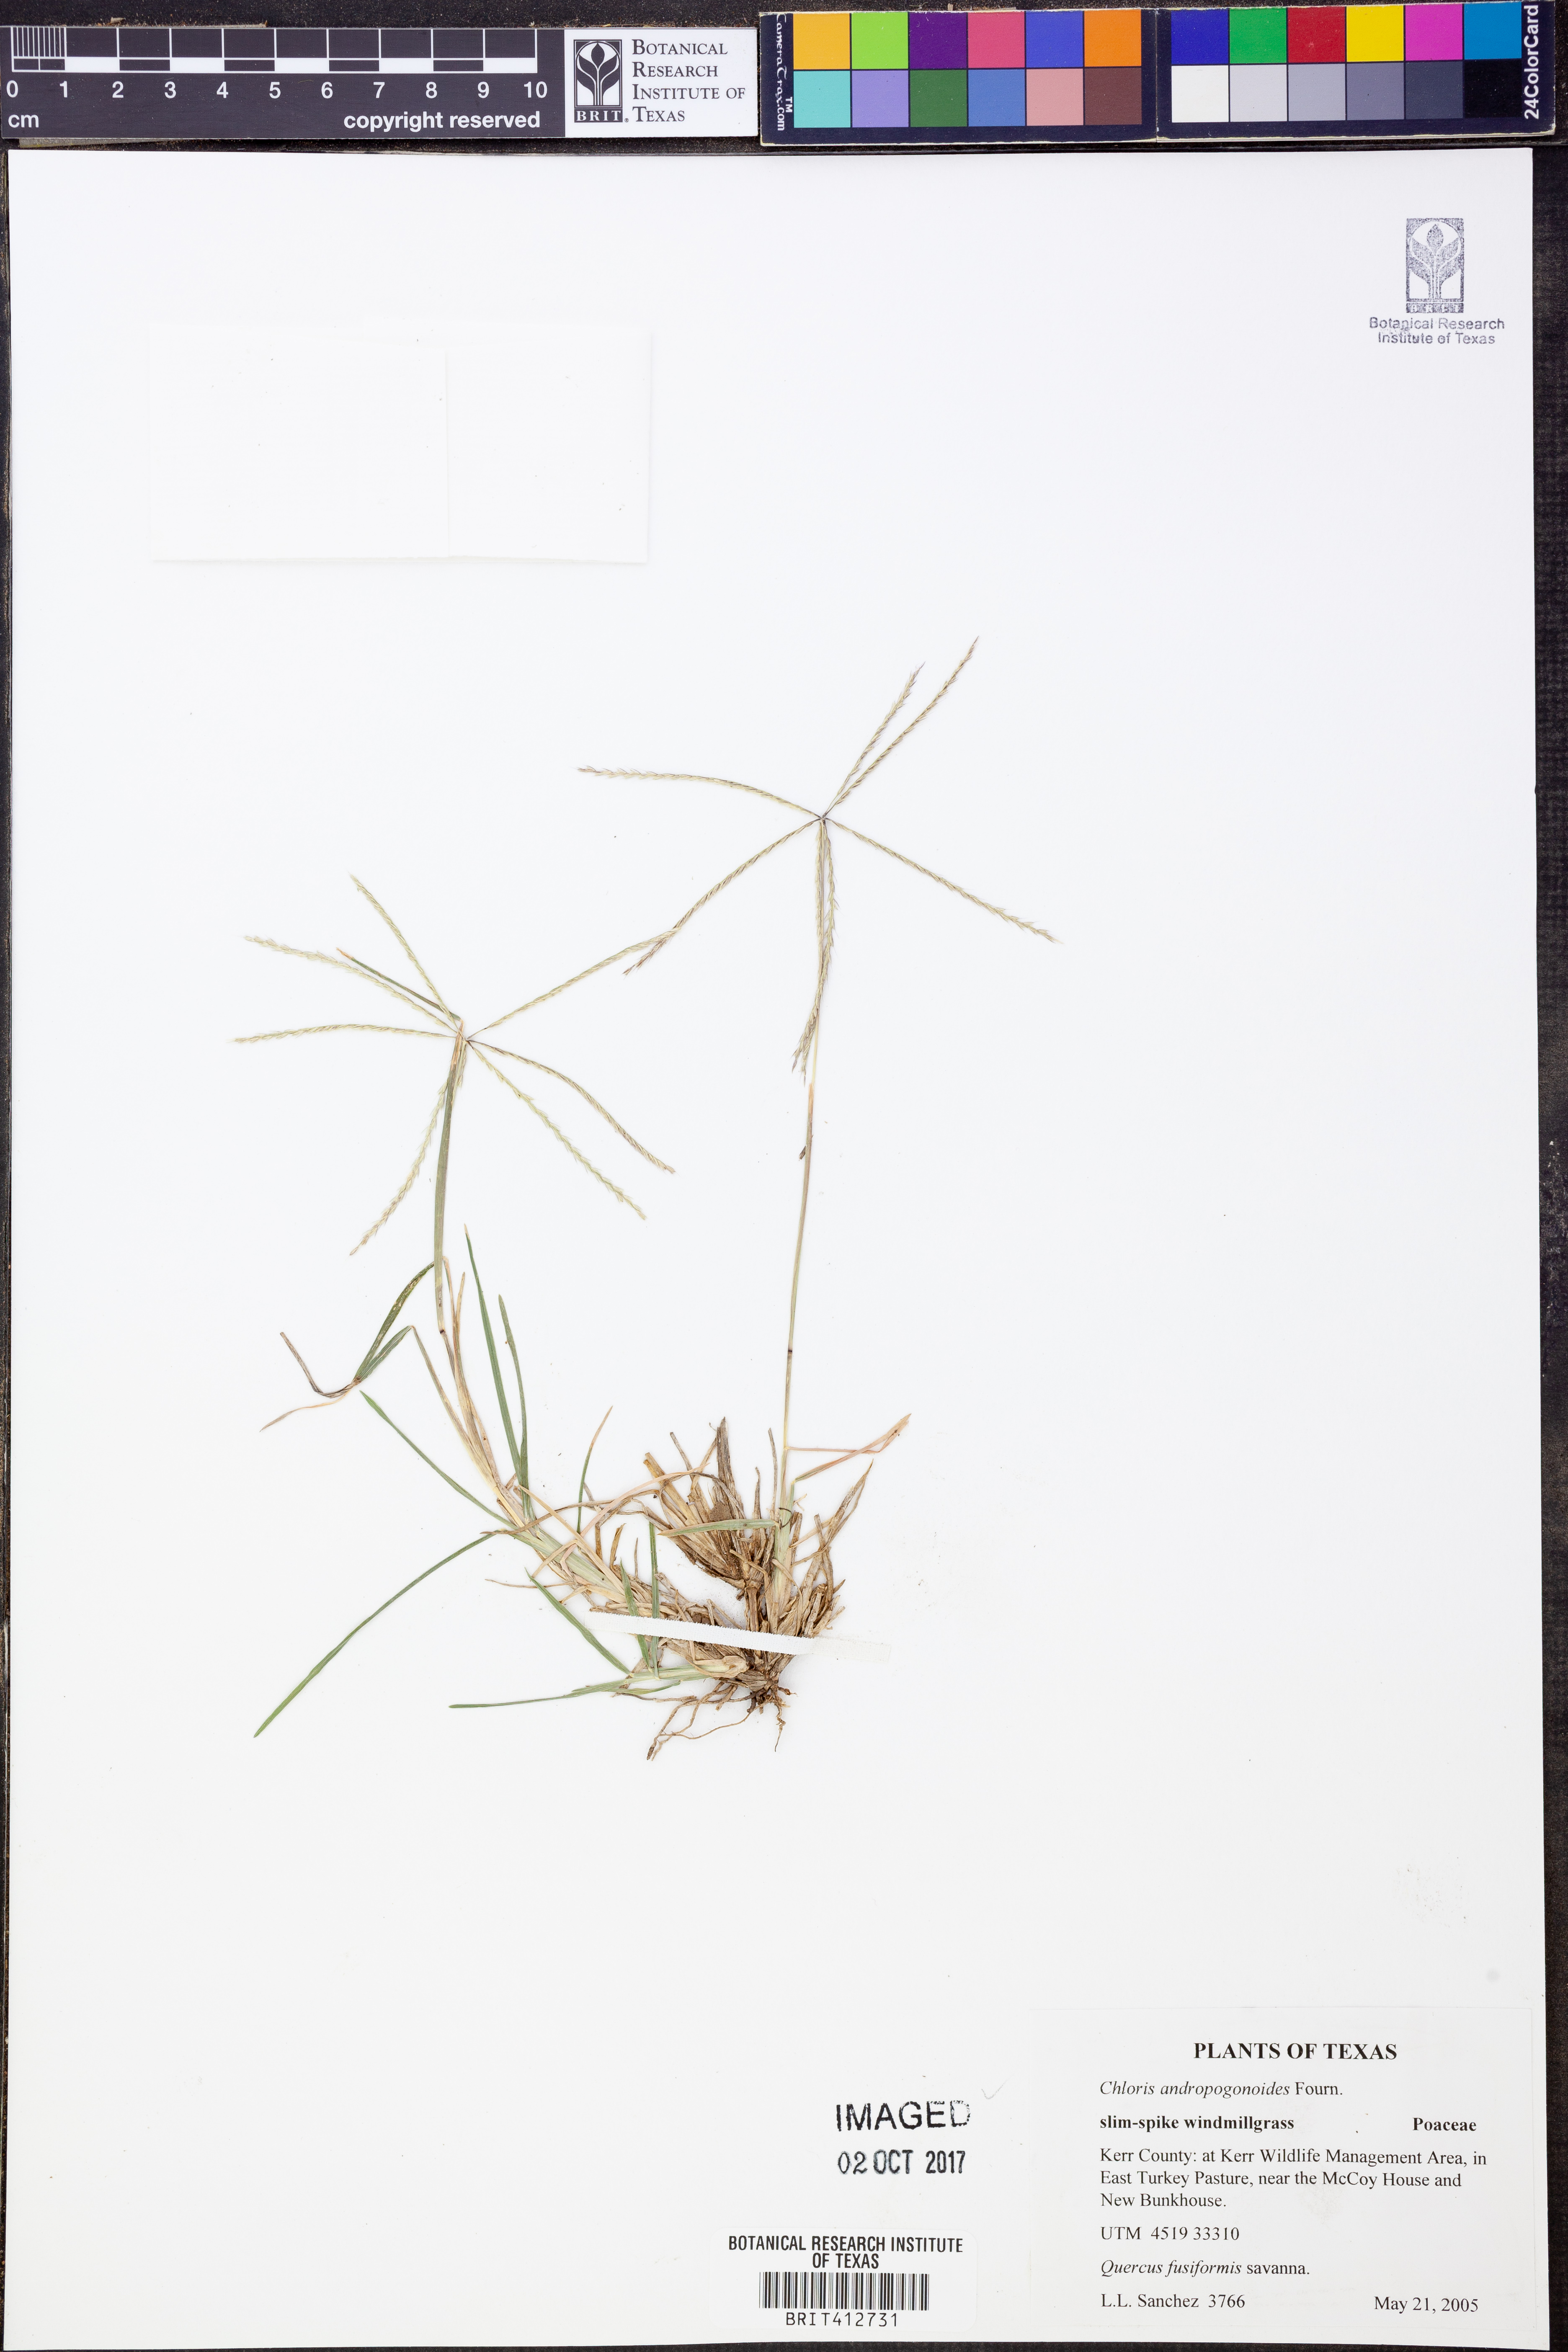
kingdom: Plantae
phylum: Tracheophyta
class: Liliopsida
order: Poales
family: Poaceae
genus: Chloris
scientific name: Chloris andropogonoides
